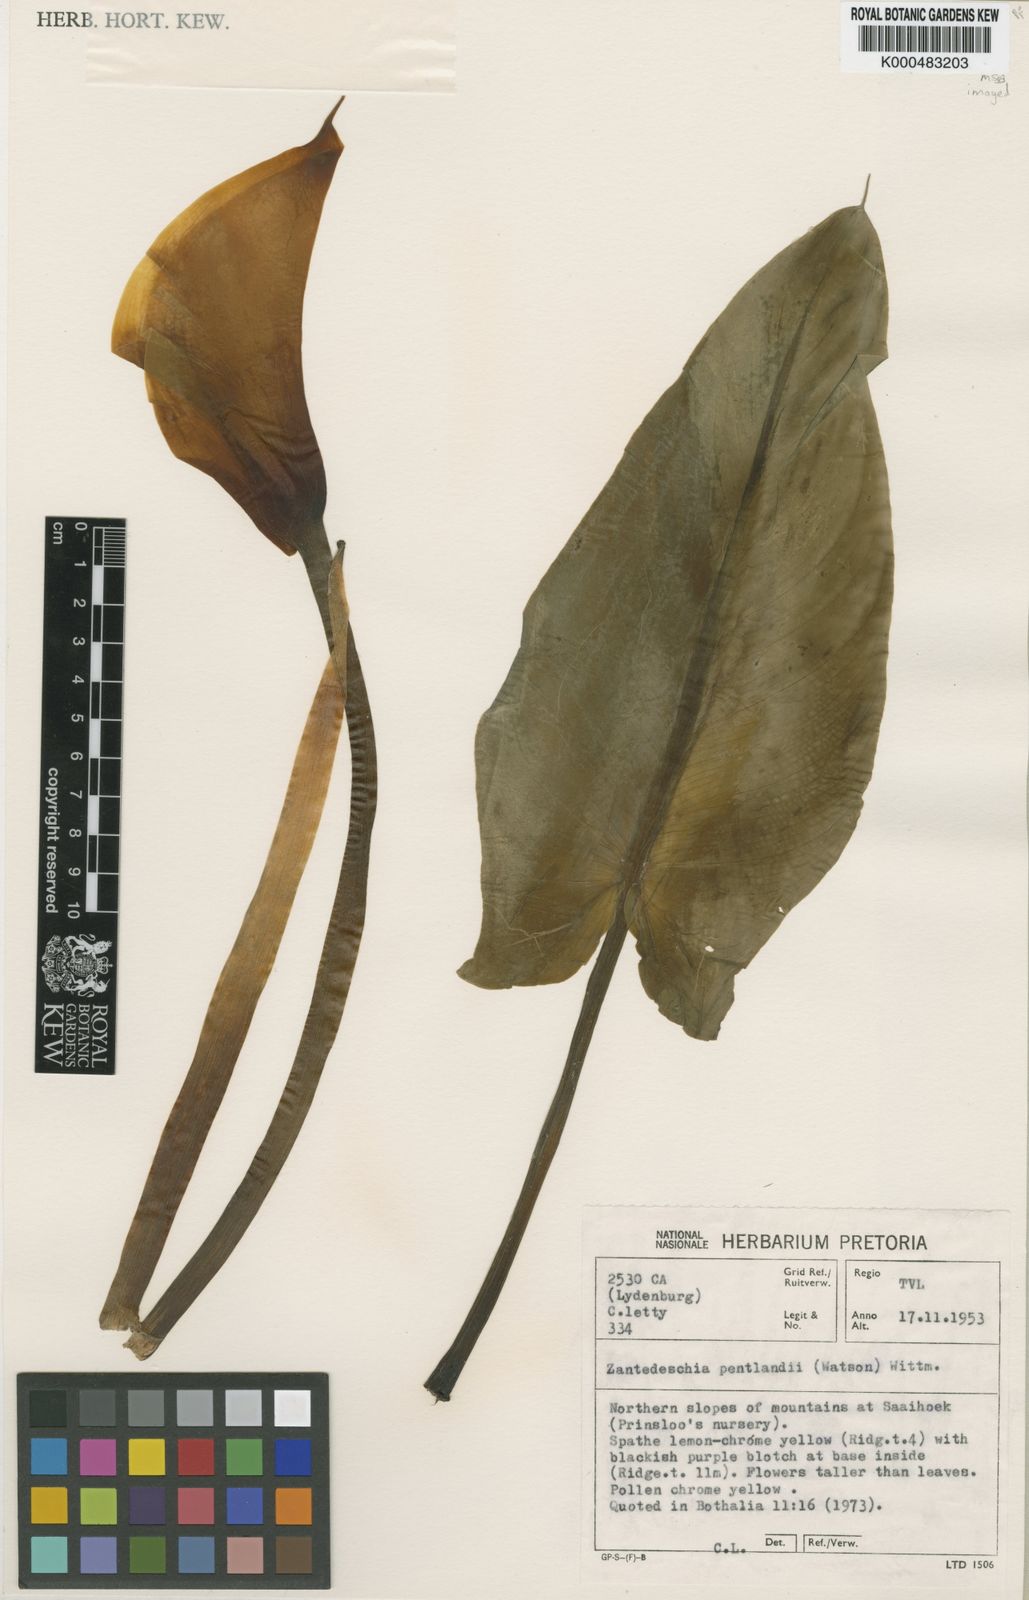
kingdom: Plantae
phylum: Tracheophyta
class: Liliopsida
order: Alismatales
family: Araceae
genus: Zantedeschia
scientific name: Zantedeschia pentlandii
